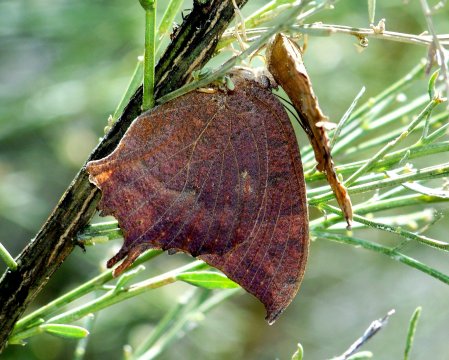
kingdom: Animalia
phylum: Arthropoda
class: Insecta
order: Lepidoptera
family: Nymphalidae
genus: Anaea
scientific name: Anaea aidea
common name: Tropical Leafwing
